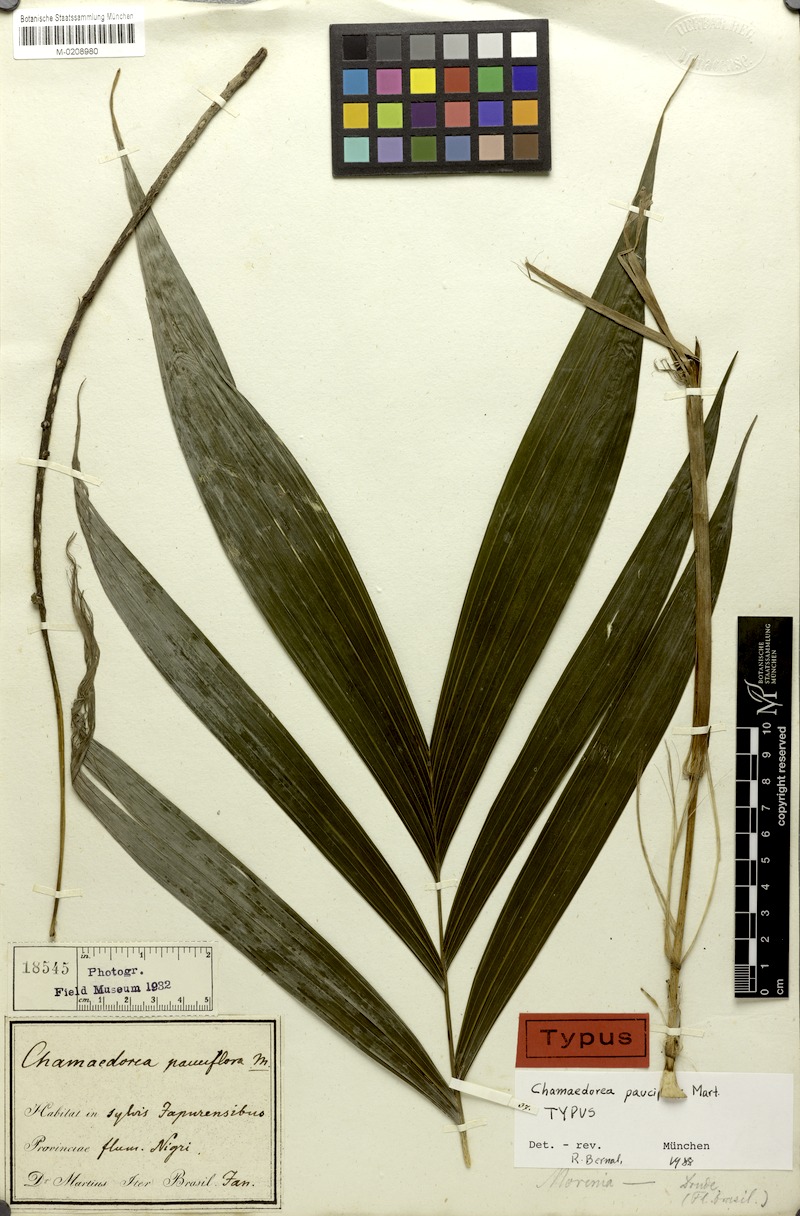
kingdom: Plantae
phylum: Tracheophyta
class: Liliopsida
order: Arecales
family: Arecaceae
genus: Chamaedorea
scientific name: Chamaedorea pauciflora
